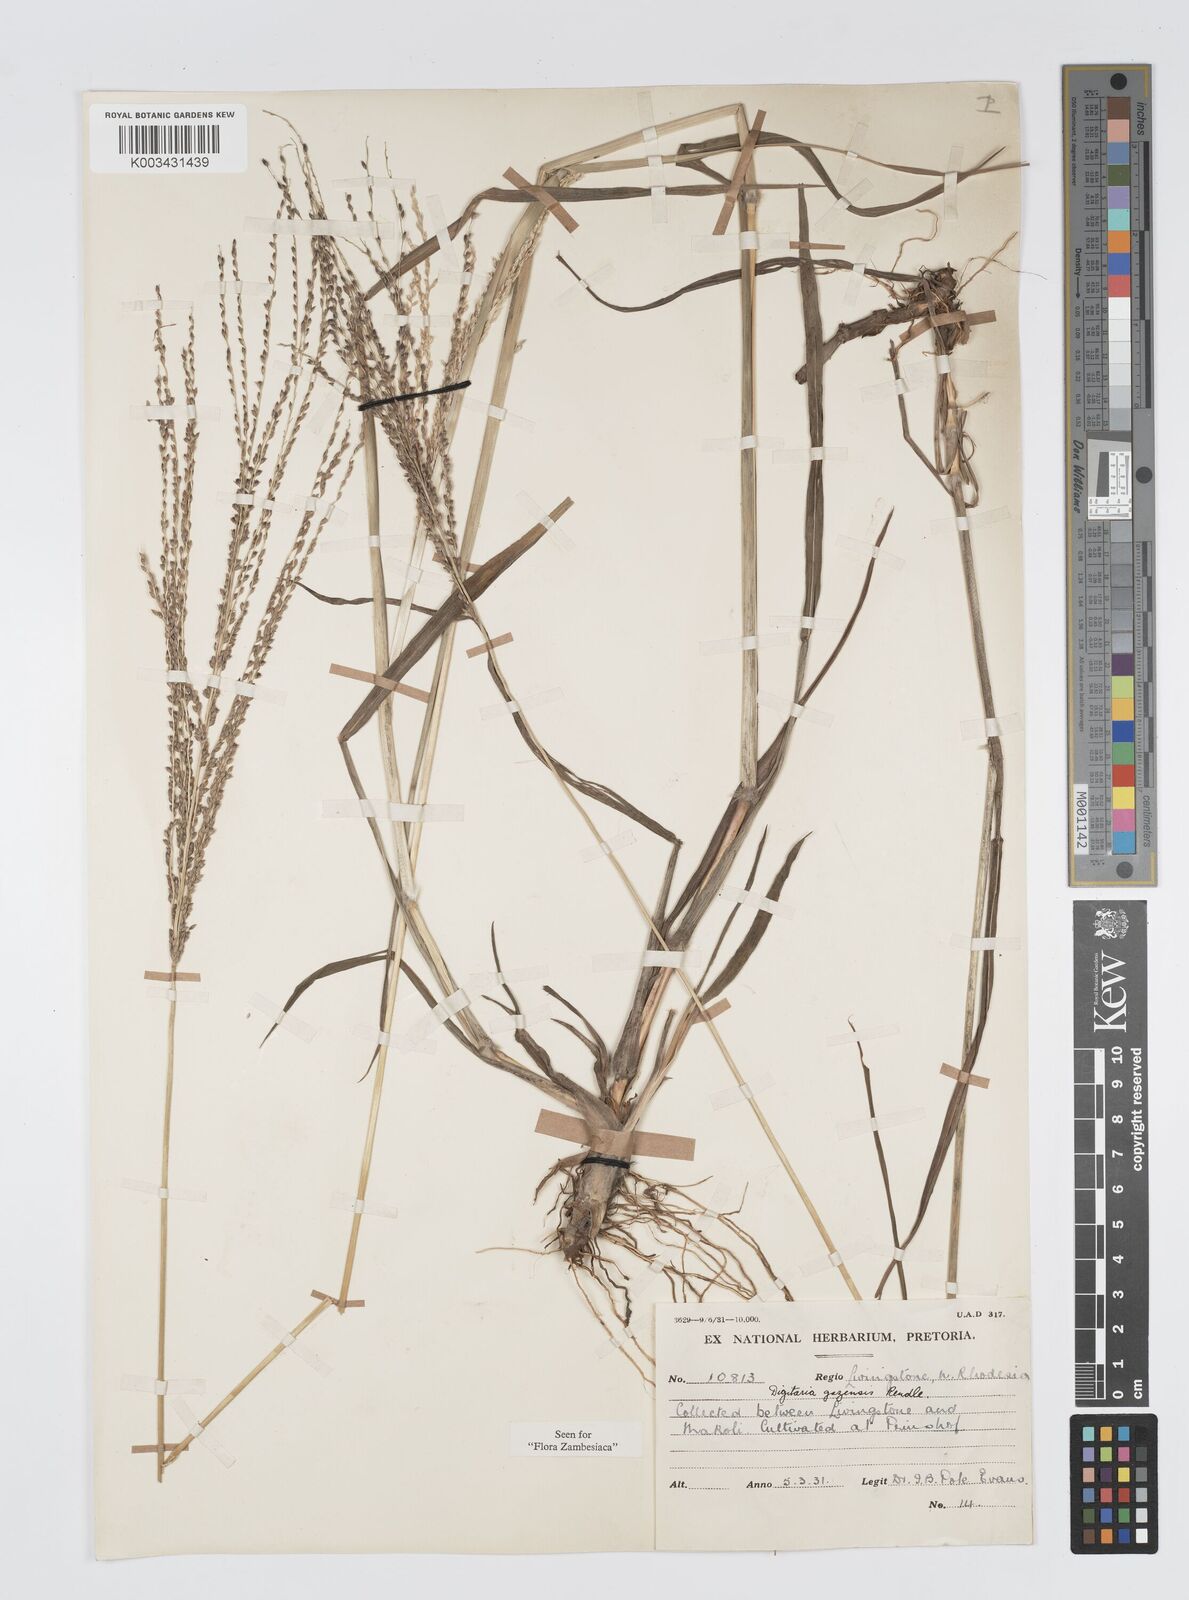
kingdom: Plantae
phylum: Tracheophyta
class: Liliopsida
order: Poales
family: Poaceae
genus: Digitaria
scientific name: Digitaria gazensis
